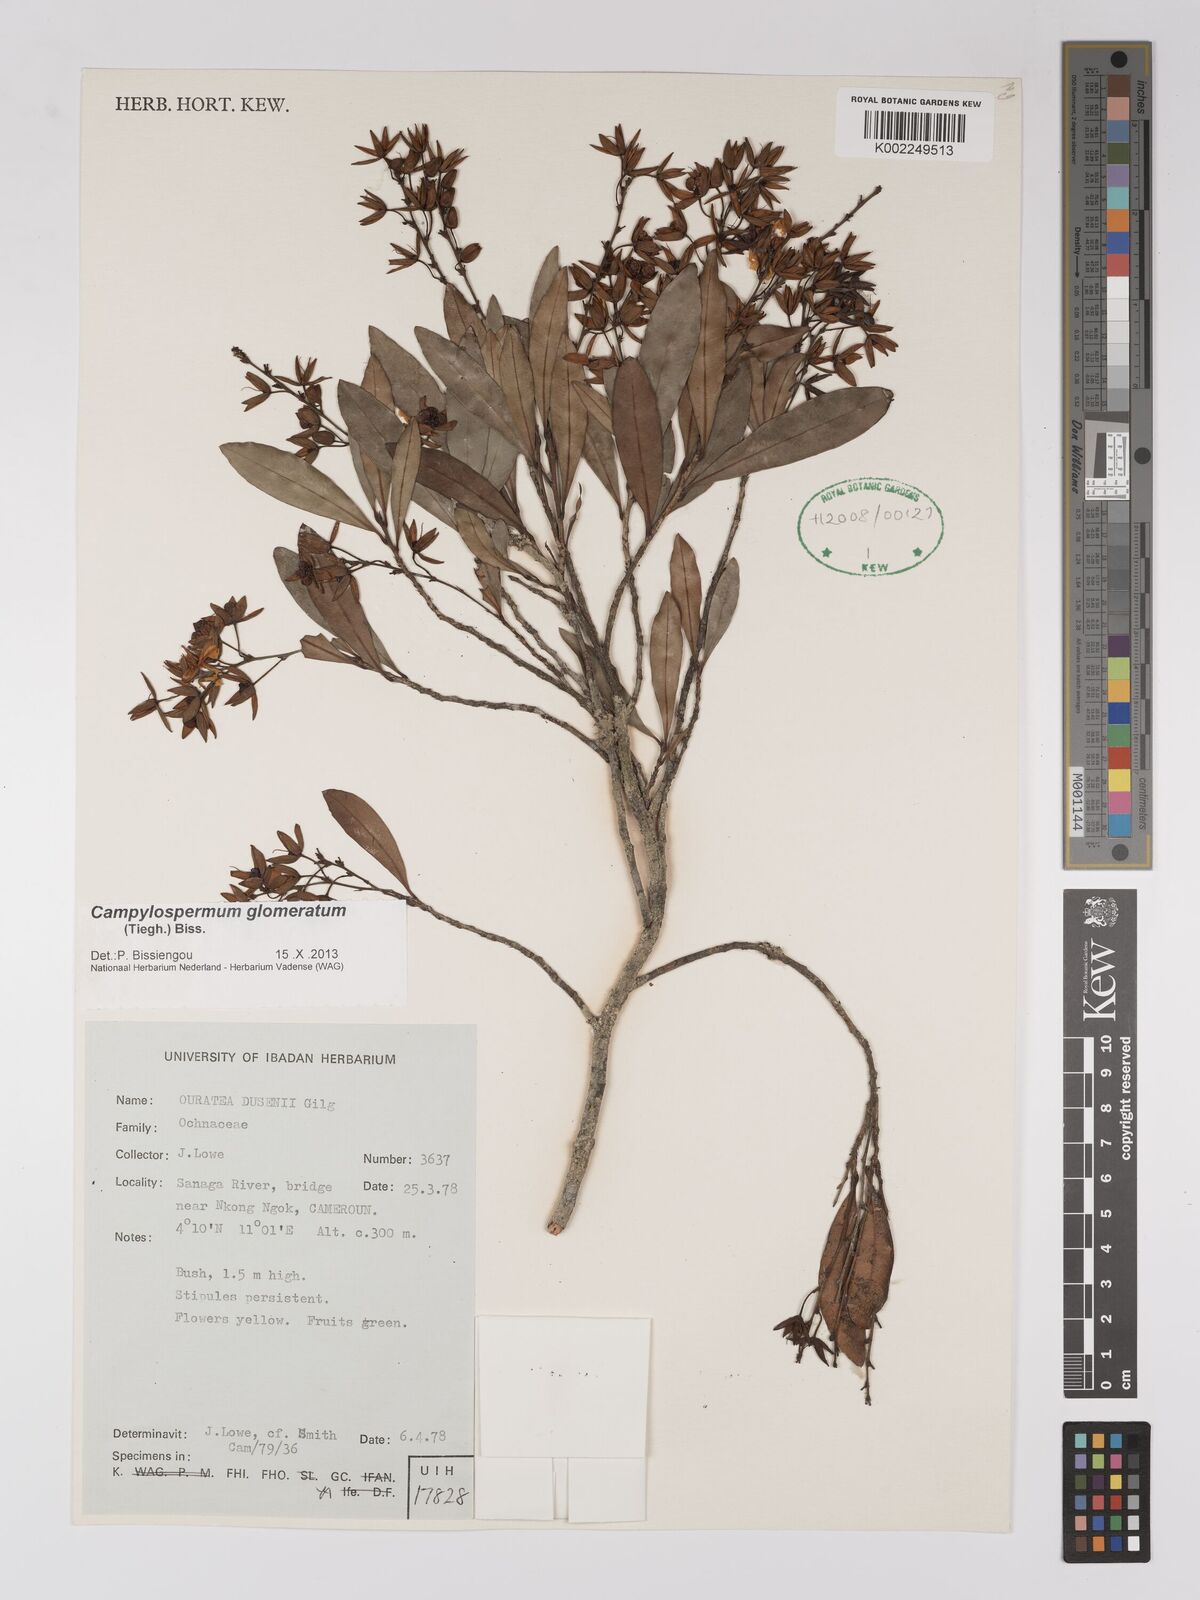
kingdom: Plantae
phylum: Tracheophyta
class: Magnoliopsida
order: Malpighiales
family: Ochnaceae
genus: Campylospermum
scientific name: Campylospermum glomeratum
